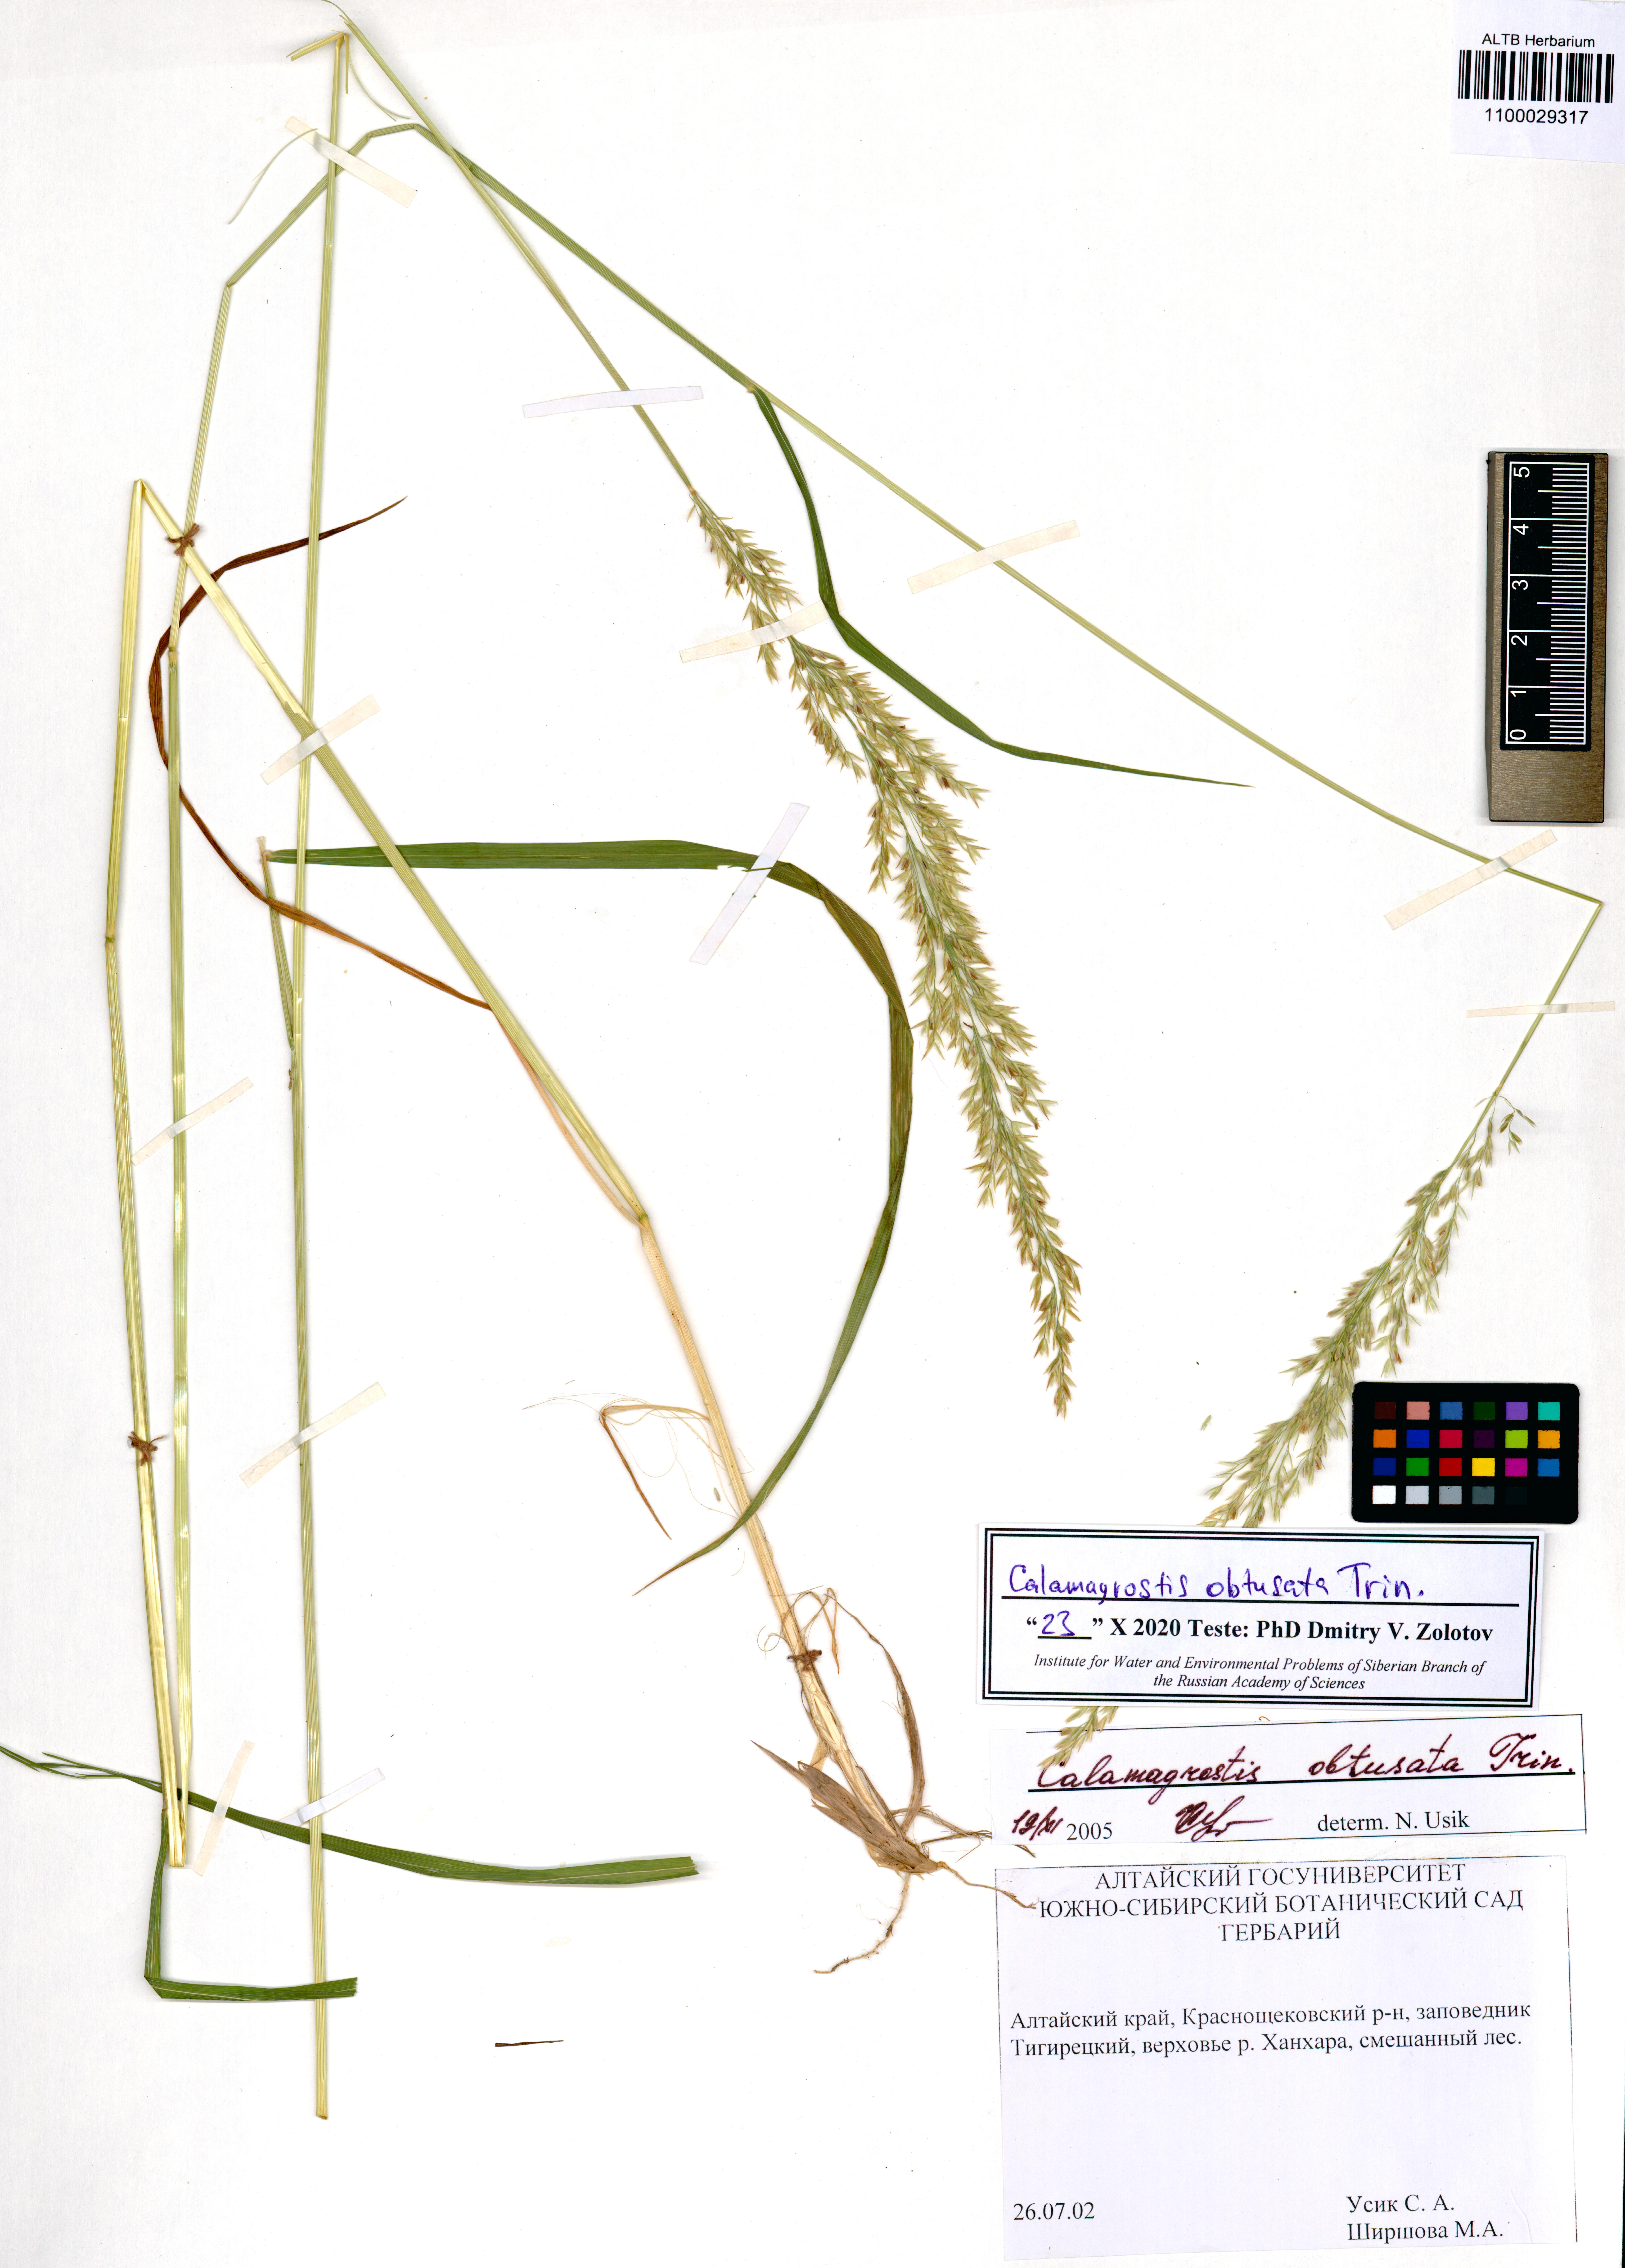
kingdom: Plantae
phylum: Tracheophyta
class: Liliopsida
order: Poales
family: Poaceae
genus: Calamagrostis
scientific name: Calamagrostis obtusata
